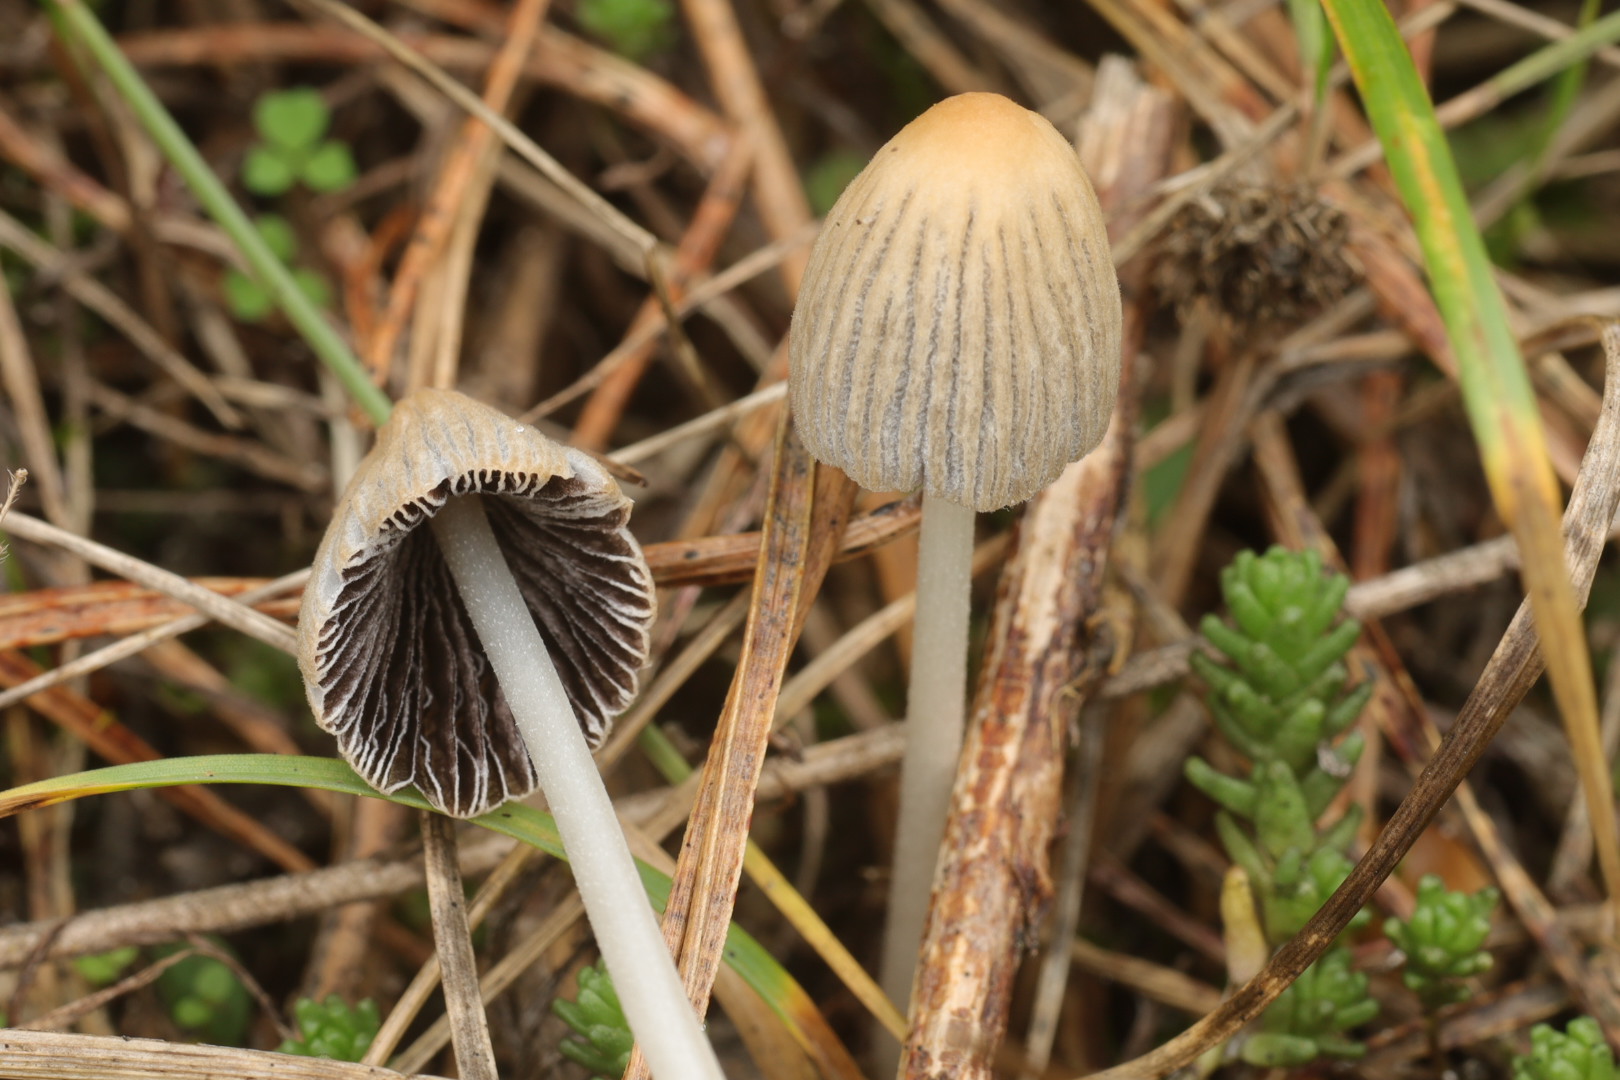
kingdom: Fungi
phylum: Basidiomycota
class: Agaricomycetes
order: Agaricales
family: Psathyrellaceae
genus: Coprinellus
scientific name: Coprinellus
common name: blækhat
